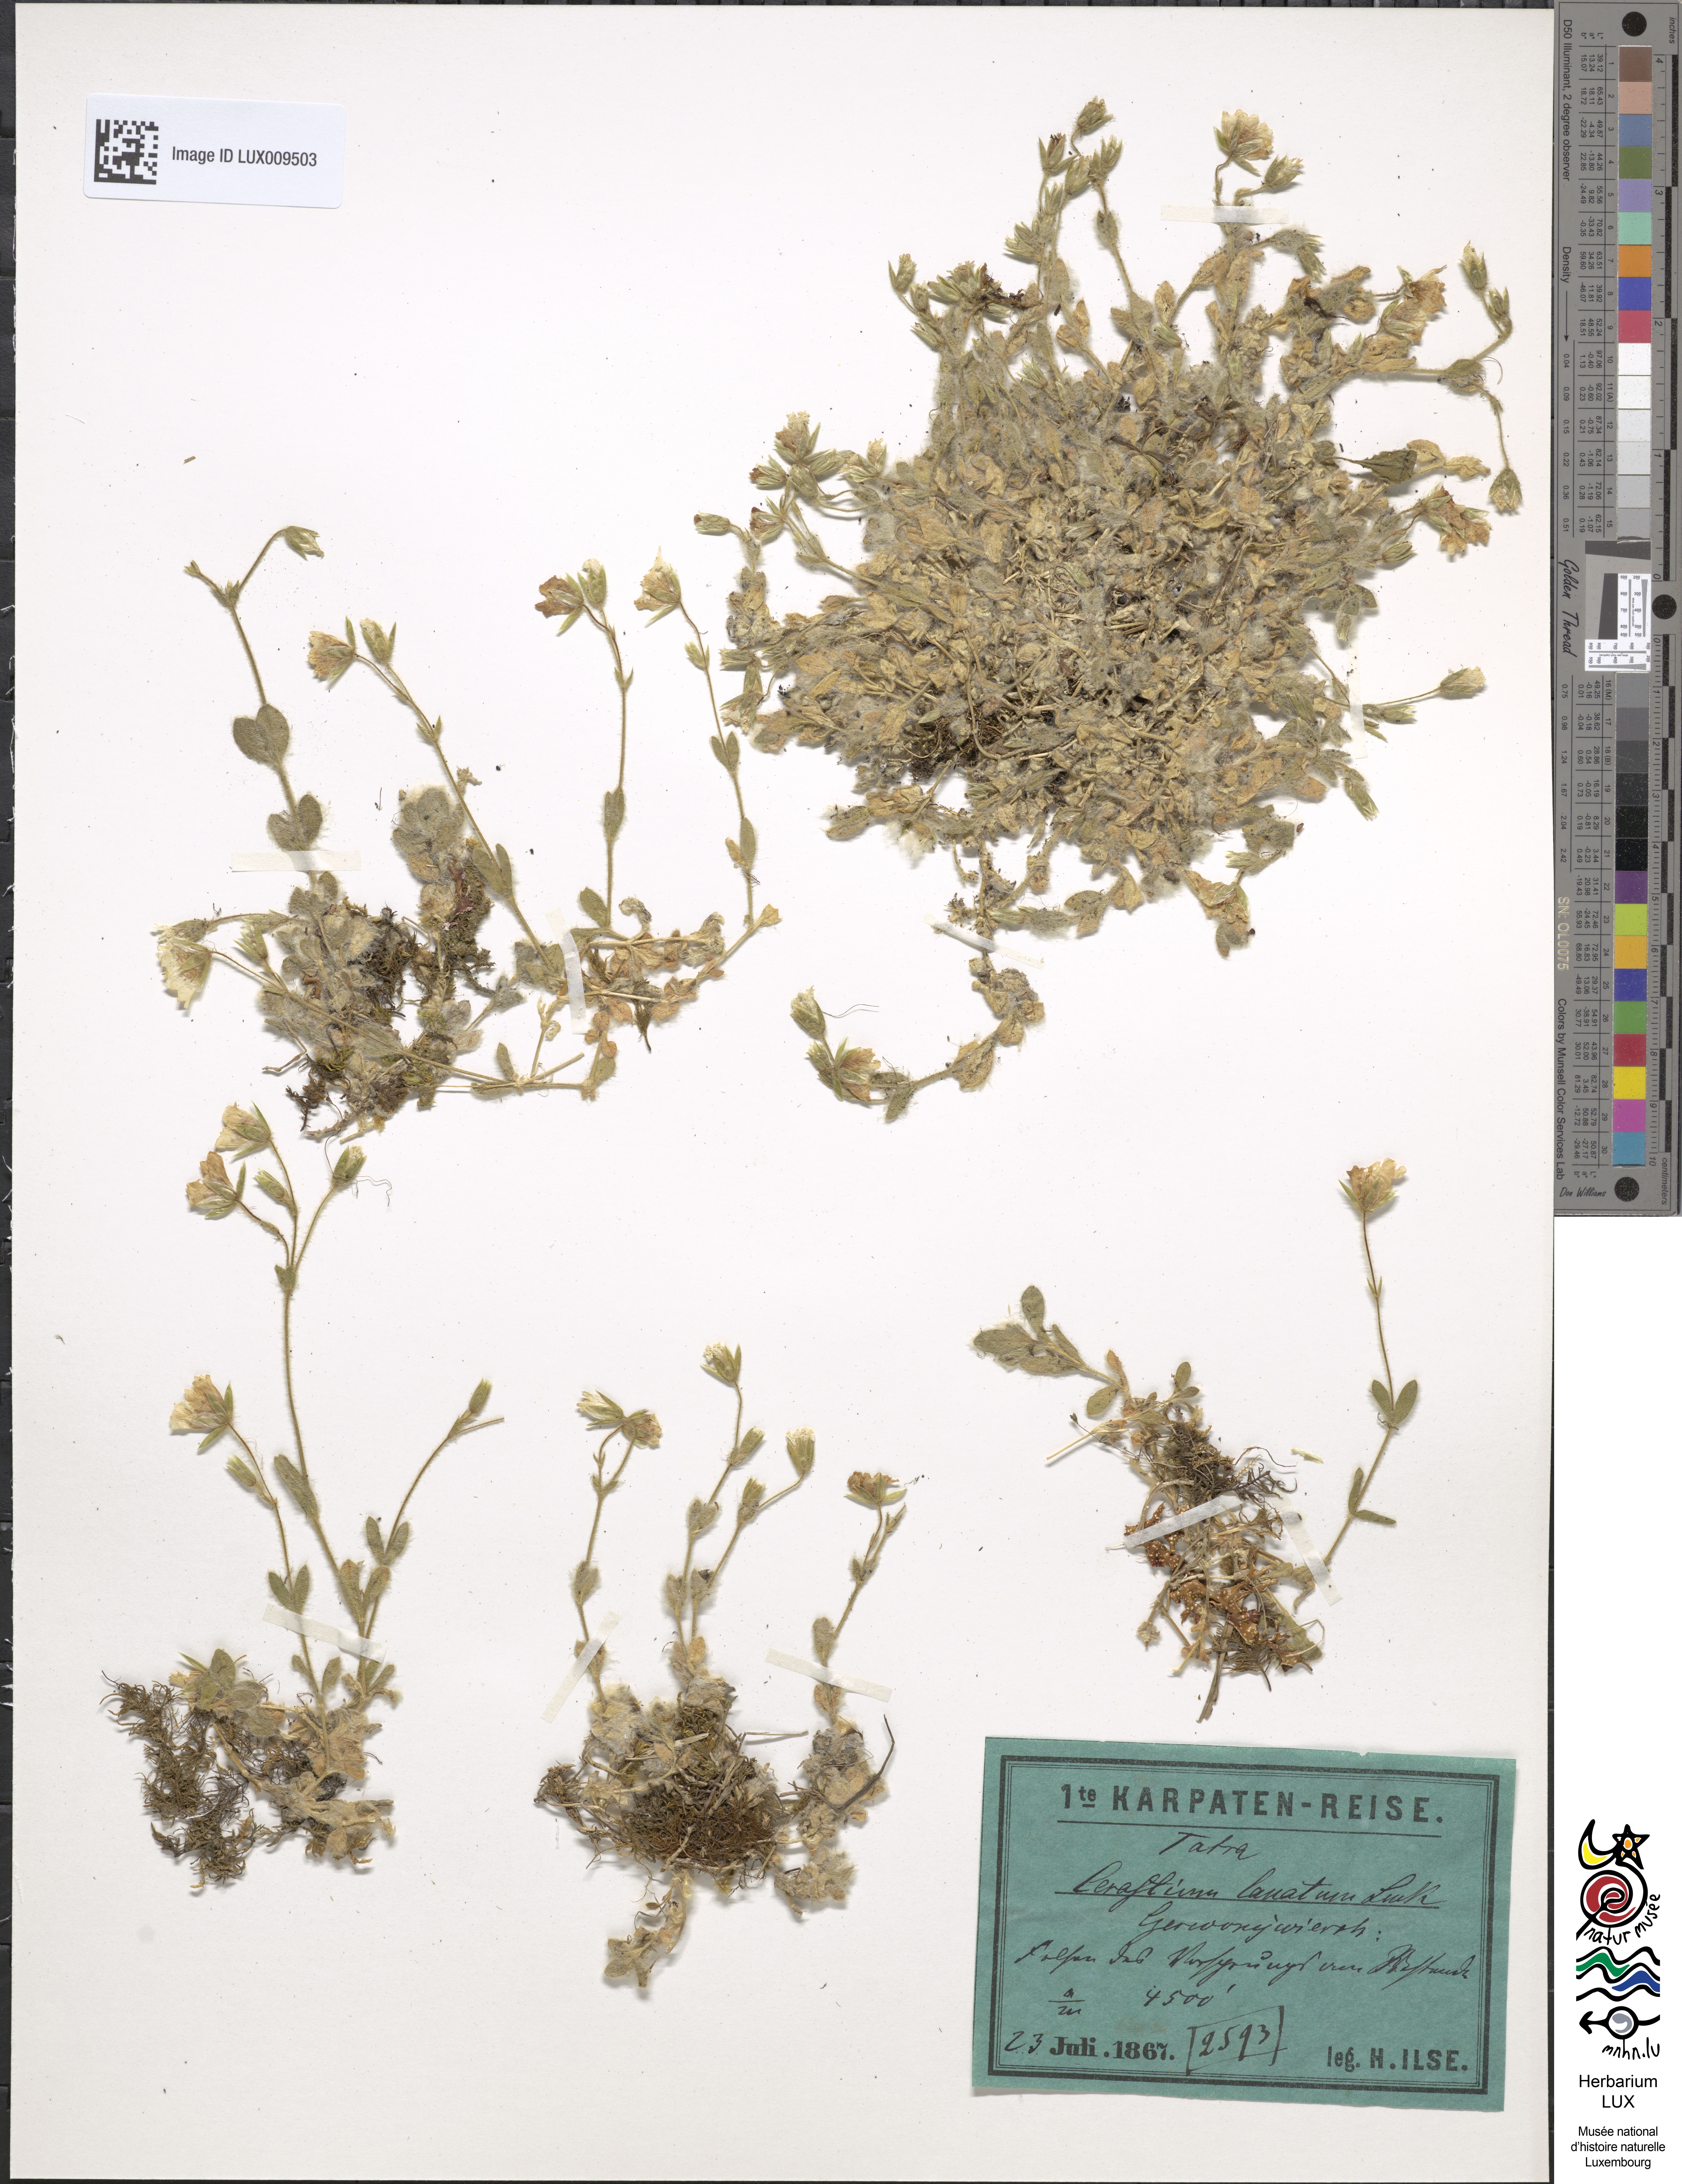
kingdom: Plantae
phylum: Tracheophyta
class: Magnoliopsida
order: Caryophyllales
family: Caryophyllaceae
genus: Cerastium
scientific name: Cerastium alpinum
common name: Alpine mouse-ear
